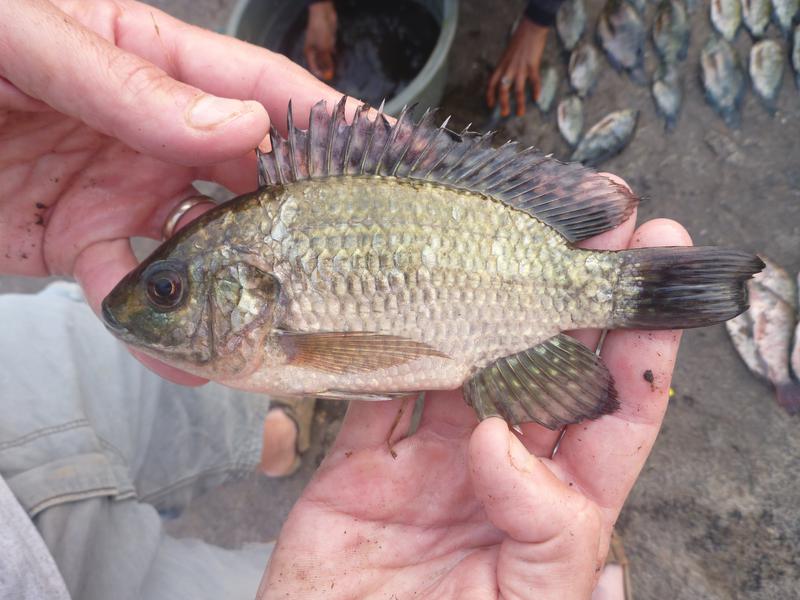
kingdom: Animalia
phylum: Chordata
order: Perciformes
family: Cichlidae
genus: Oreochromis
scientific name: Oreochromis leucostictus
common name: Blue spotted tilapia
